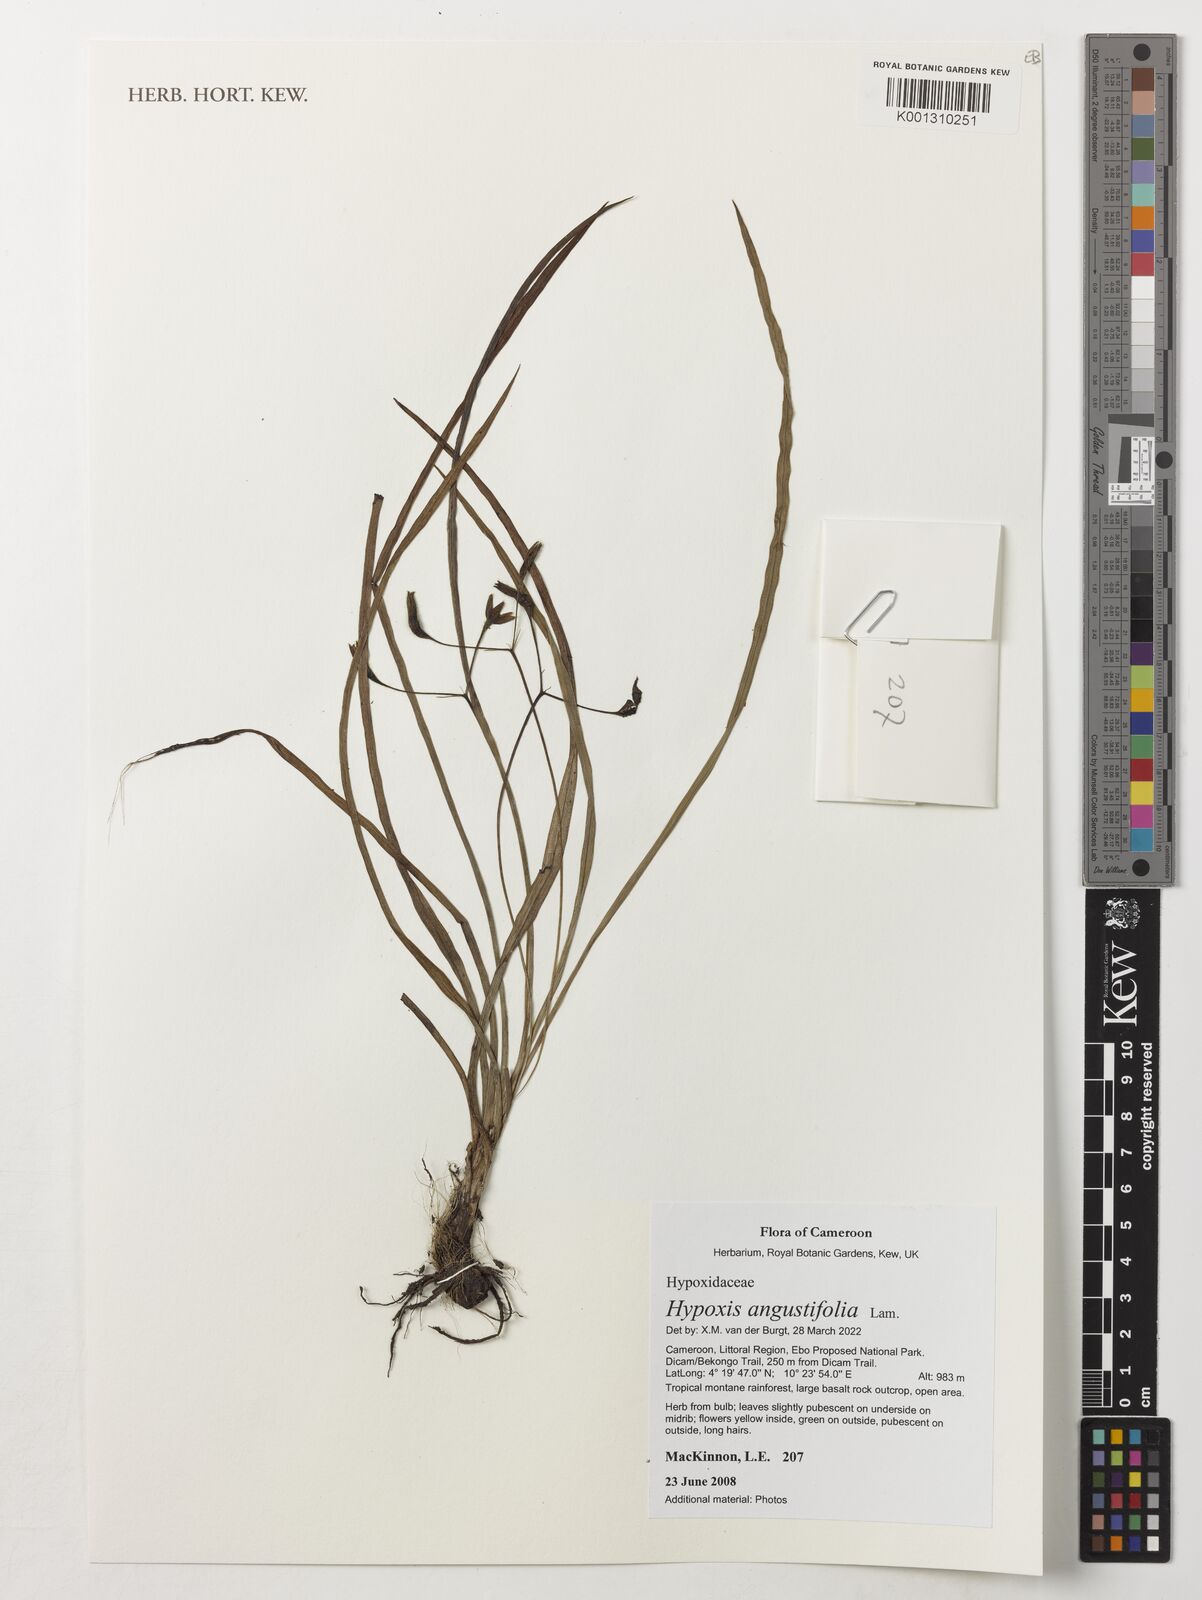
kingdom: Plantae
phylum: Tracheophyta
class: Liliopsida
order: Asparagales
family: Hypoxidaceae
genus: Hypoxis
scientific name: Hypoxis angustifolia
